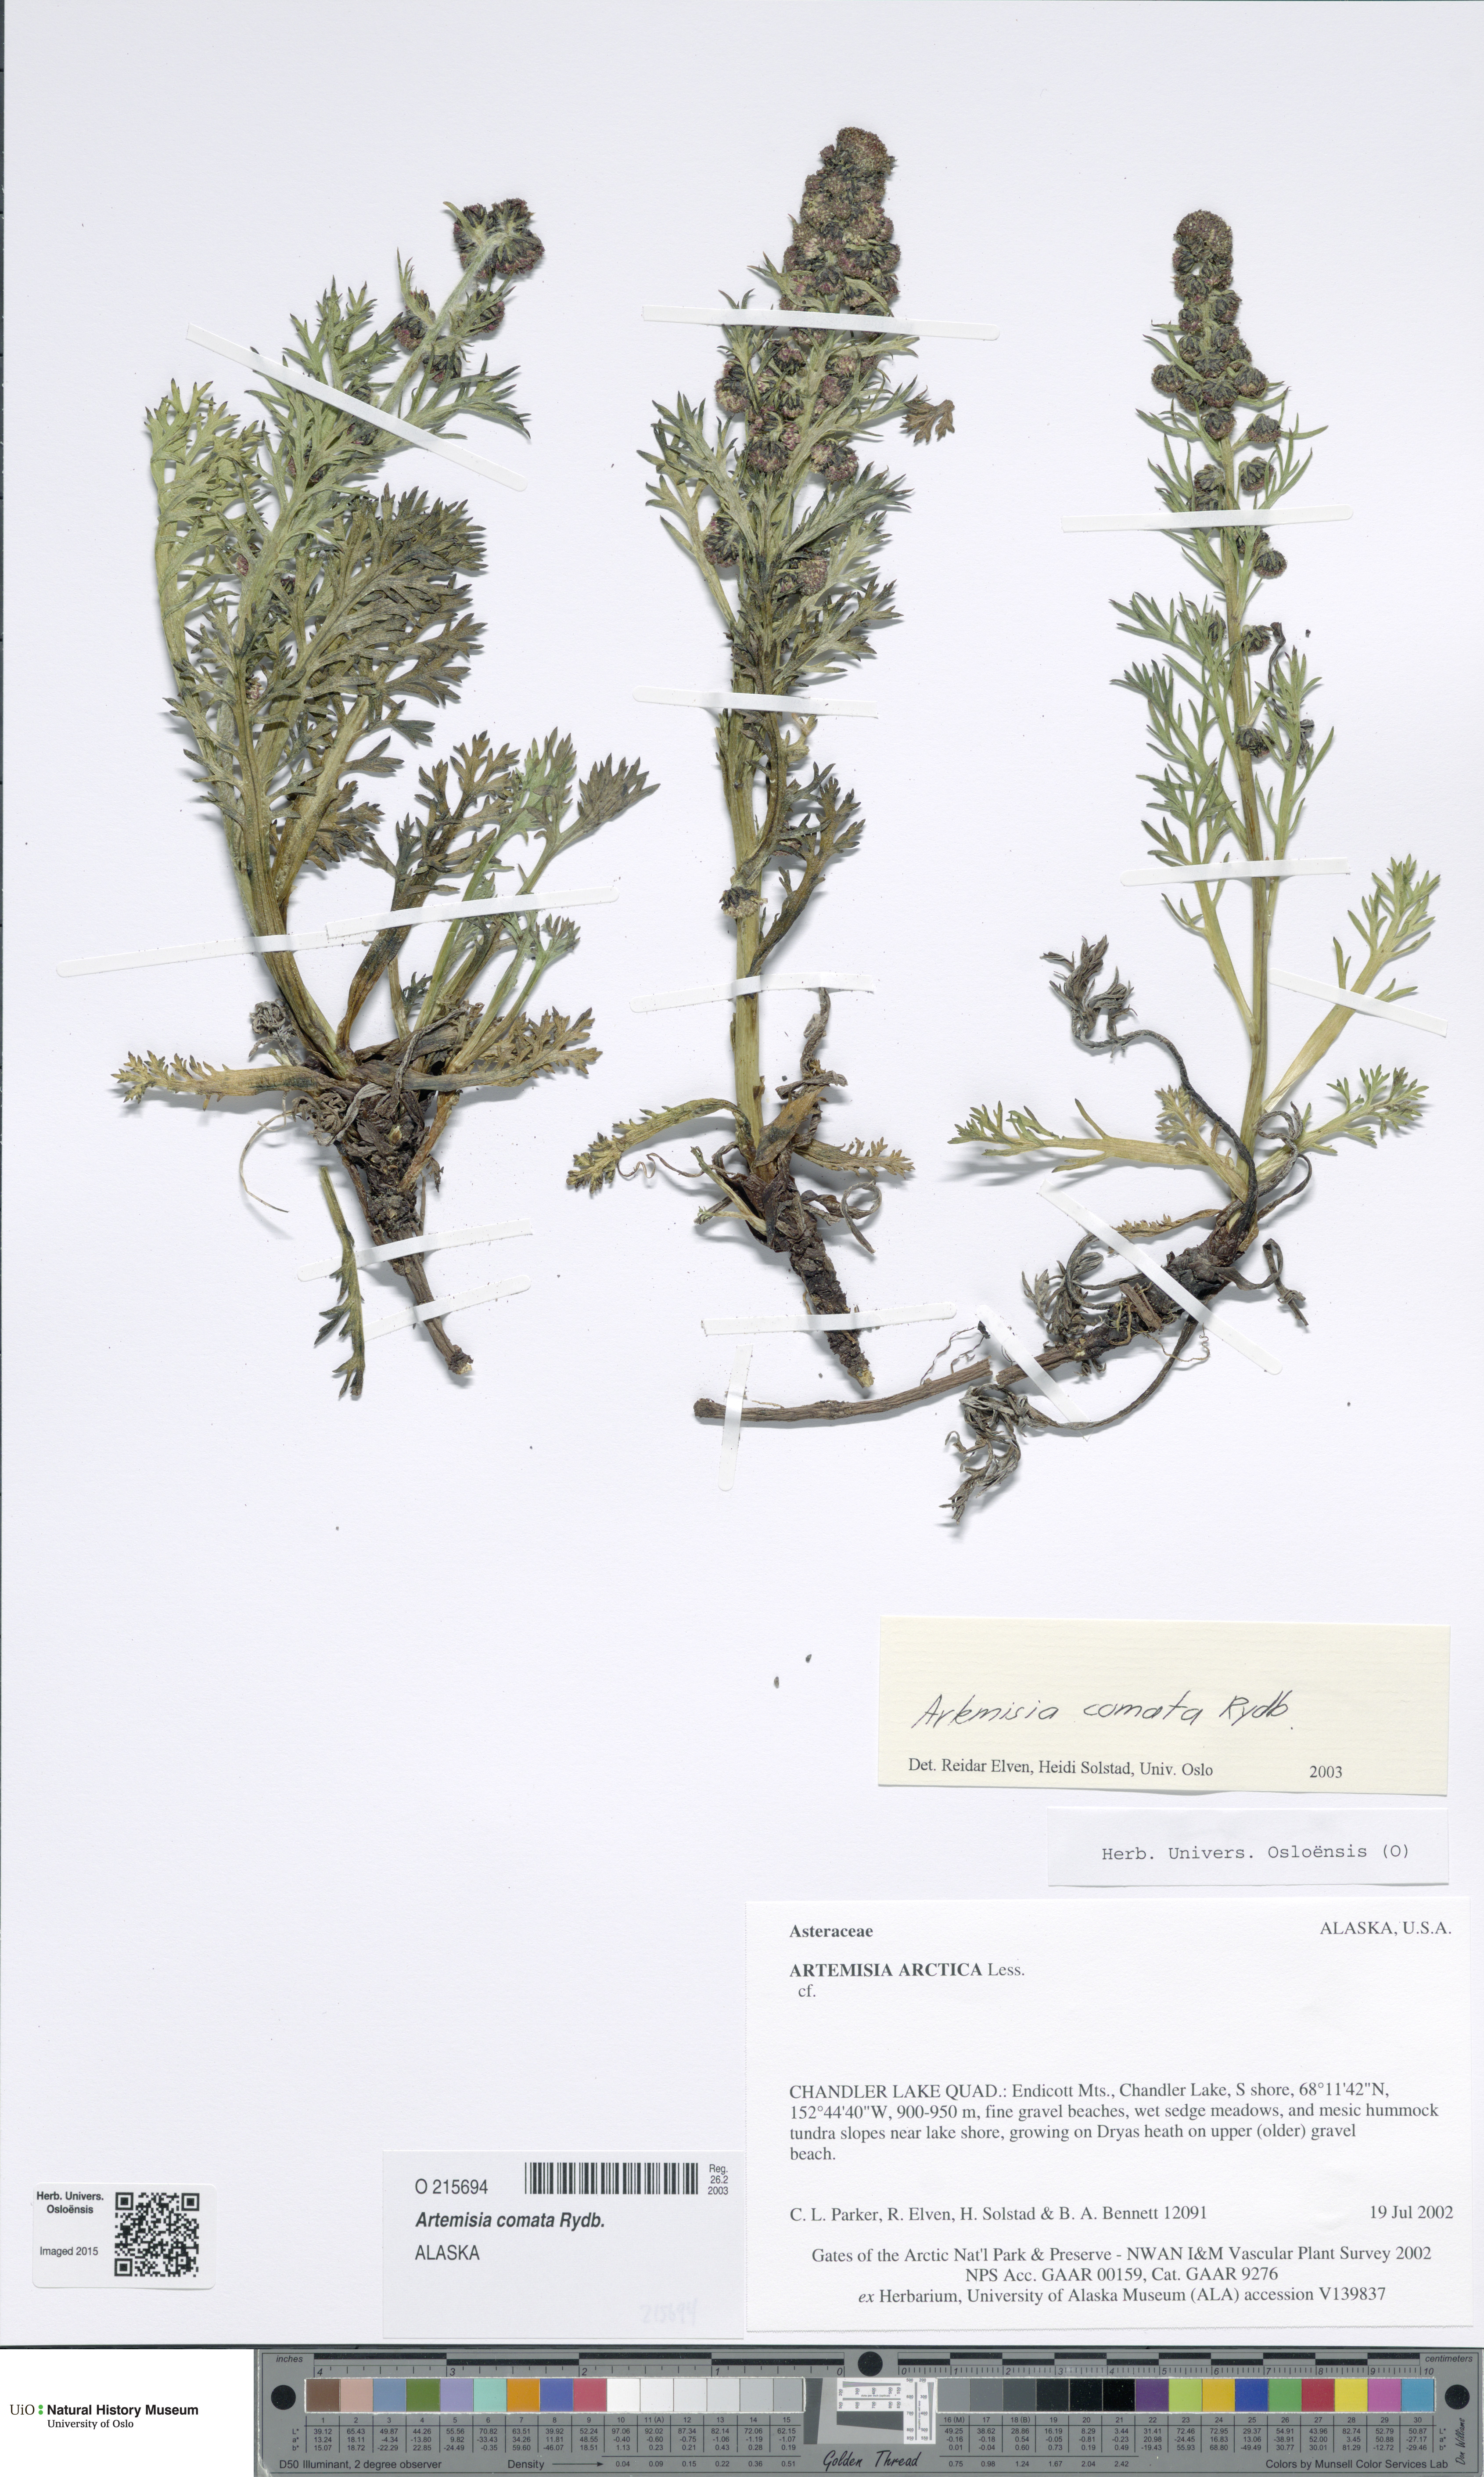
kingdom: Plantae
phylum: Tracheophyta
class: Magnoliopsida
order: Asterales
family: Asteraceae
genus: Artemisia
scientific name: Artemisia norvegica
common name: Norwegian mugwort
